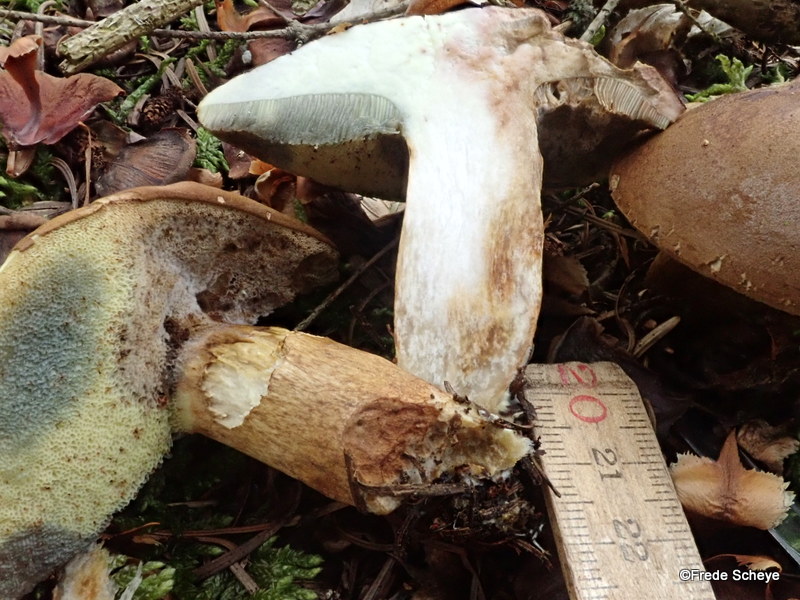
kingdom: Fungi
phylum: Basidiomycota
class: Agaricomycetes
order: Boletales
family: Boletaceae
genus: Imleria
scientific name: Imleria badia
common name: brunstokket rørhat
